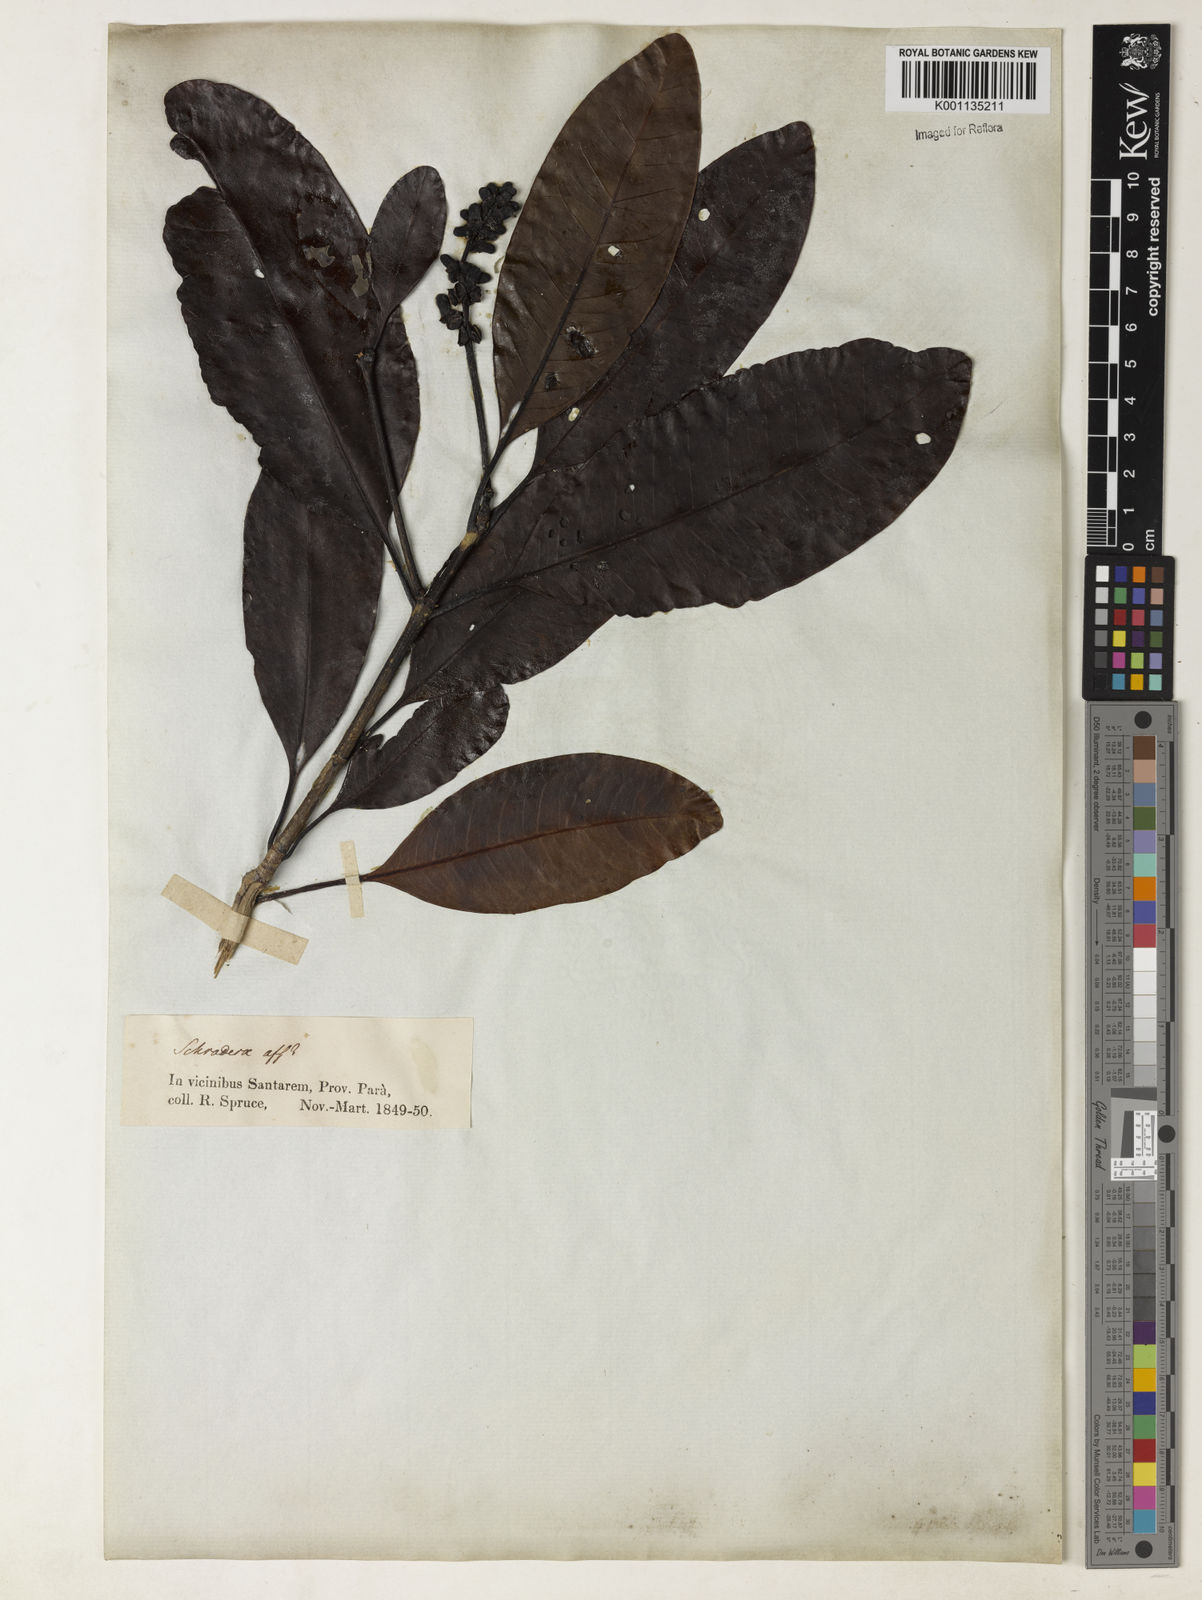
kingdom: Plantae
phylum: Tracheophyta
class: Magnoliopsida
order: Gentianales
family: Rubiaceae
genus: Stachyarrhena
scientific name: Stachyarrhena spicata
